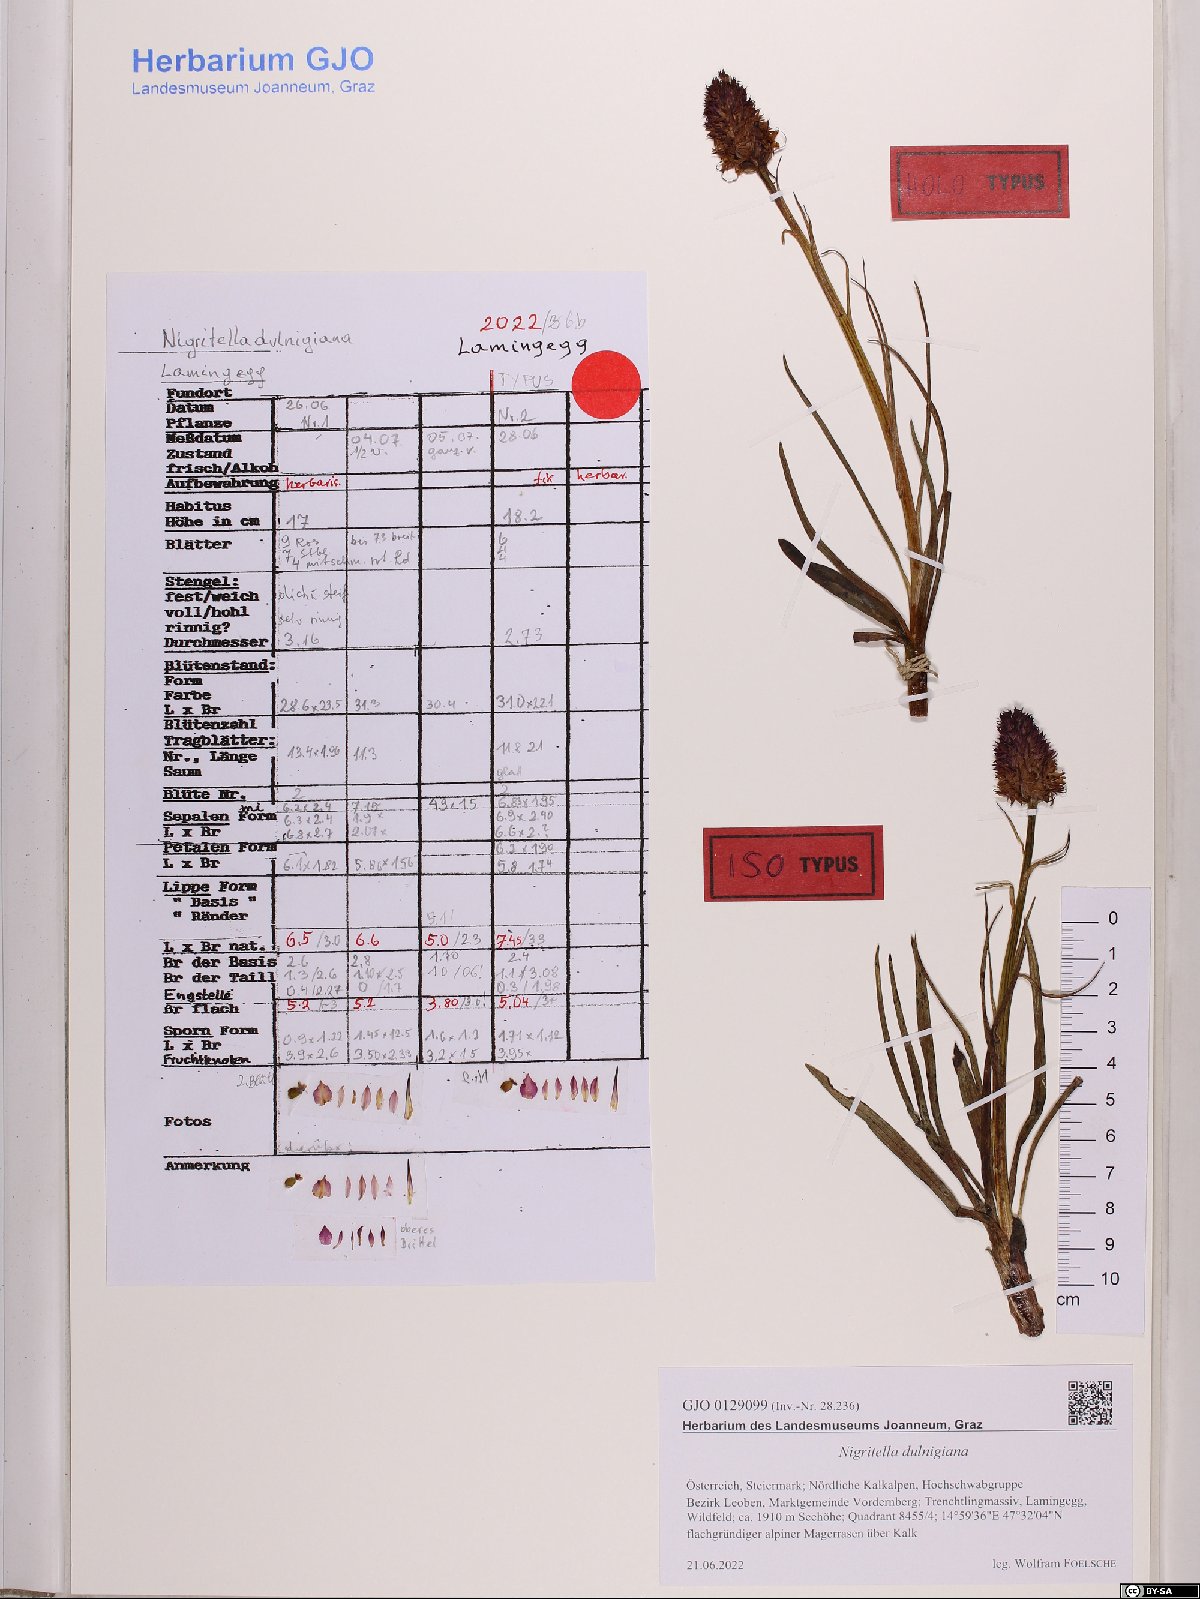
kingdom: Animalia
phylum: Mollusca
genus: Nigritella
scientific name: Nigritella
